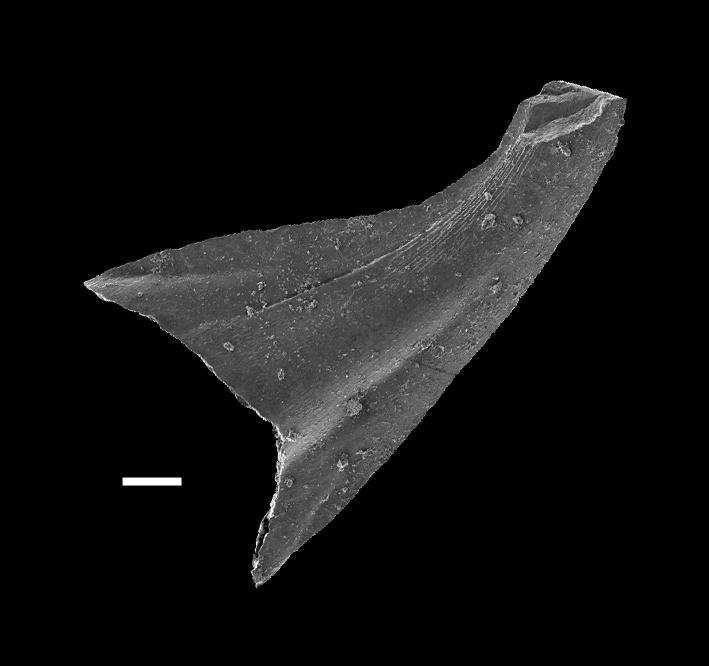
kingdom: Animalia
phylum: Chordata
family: Strachanognathidae
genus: Scabbardella
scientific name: Scabbardella
